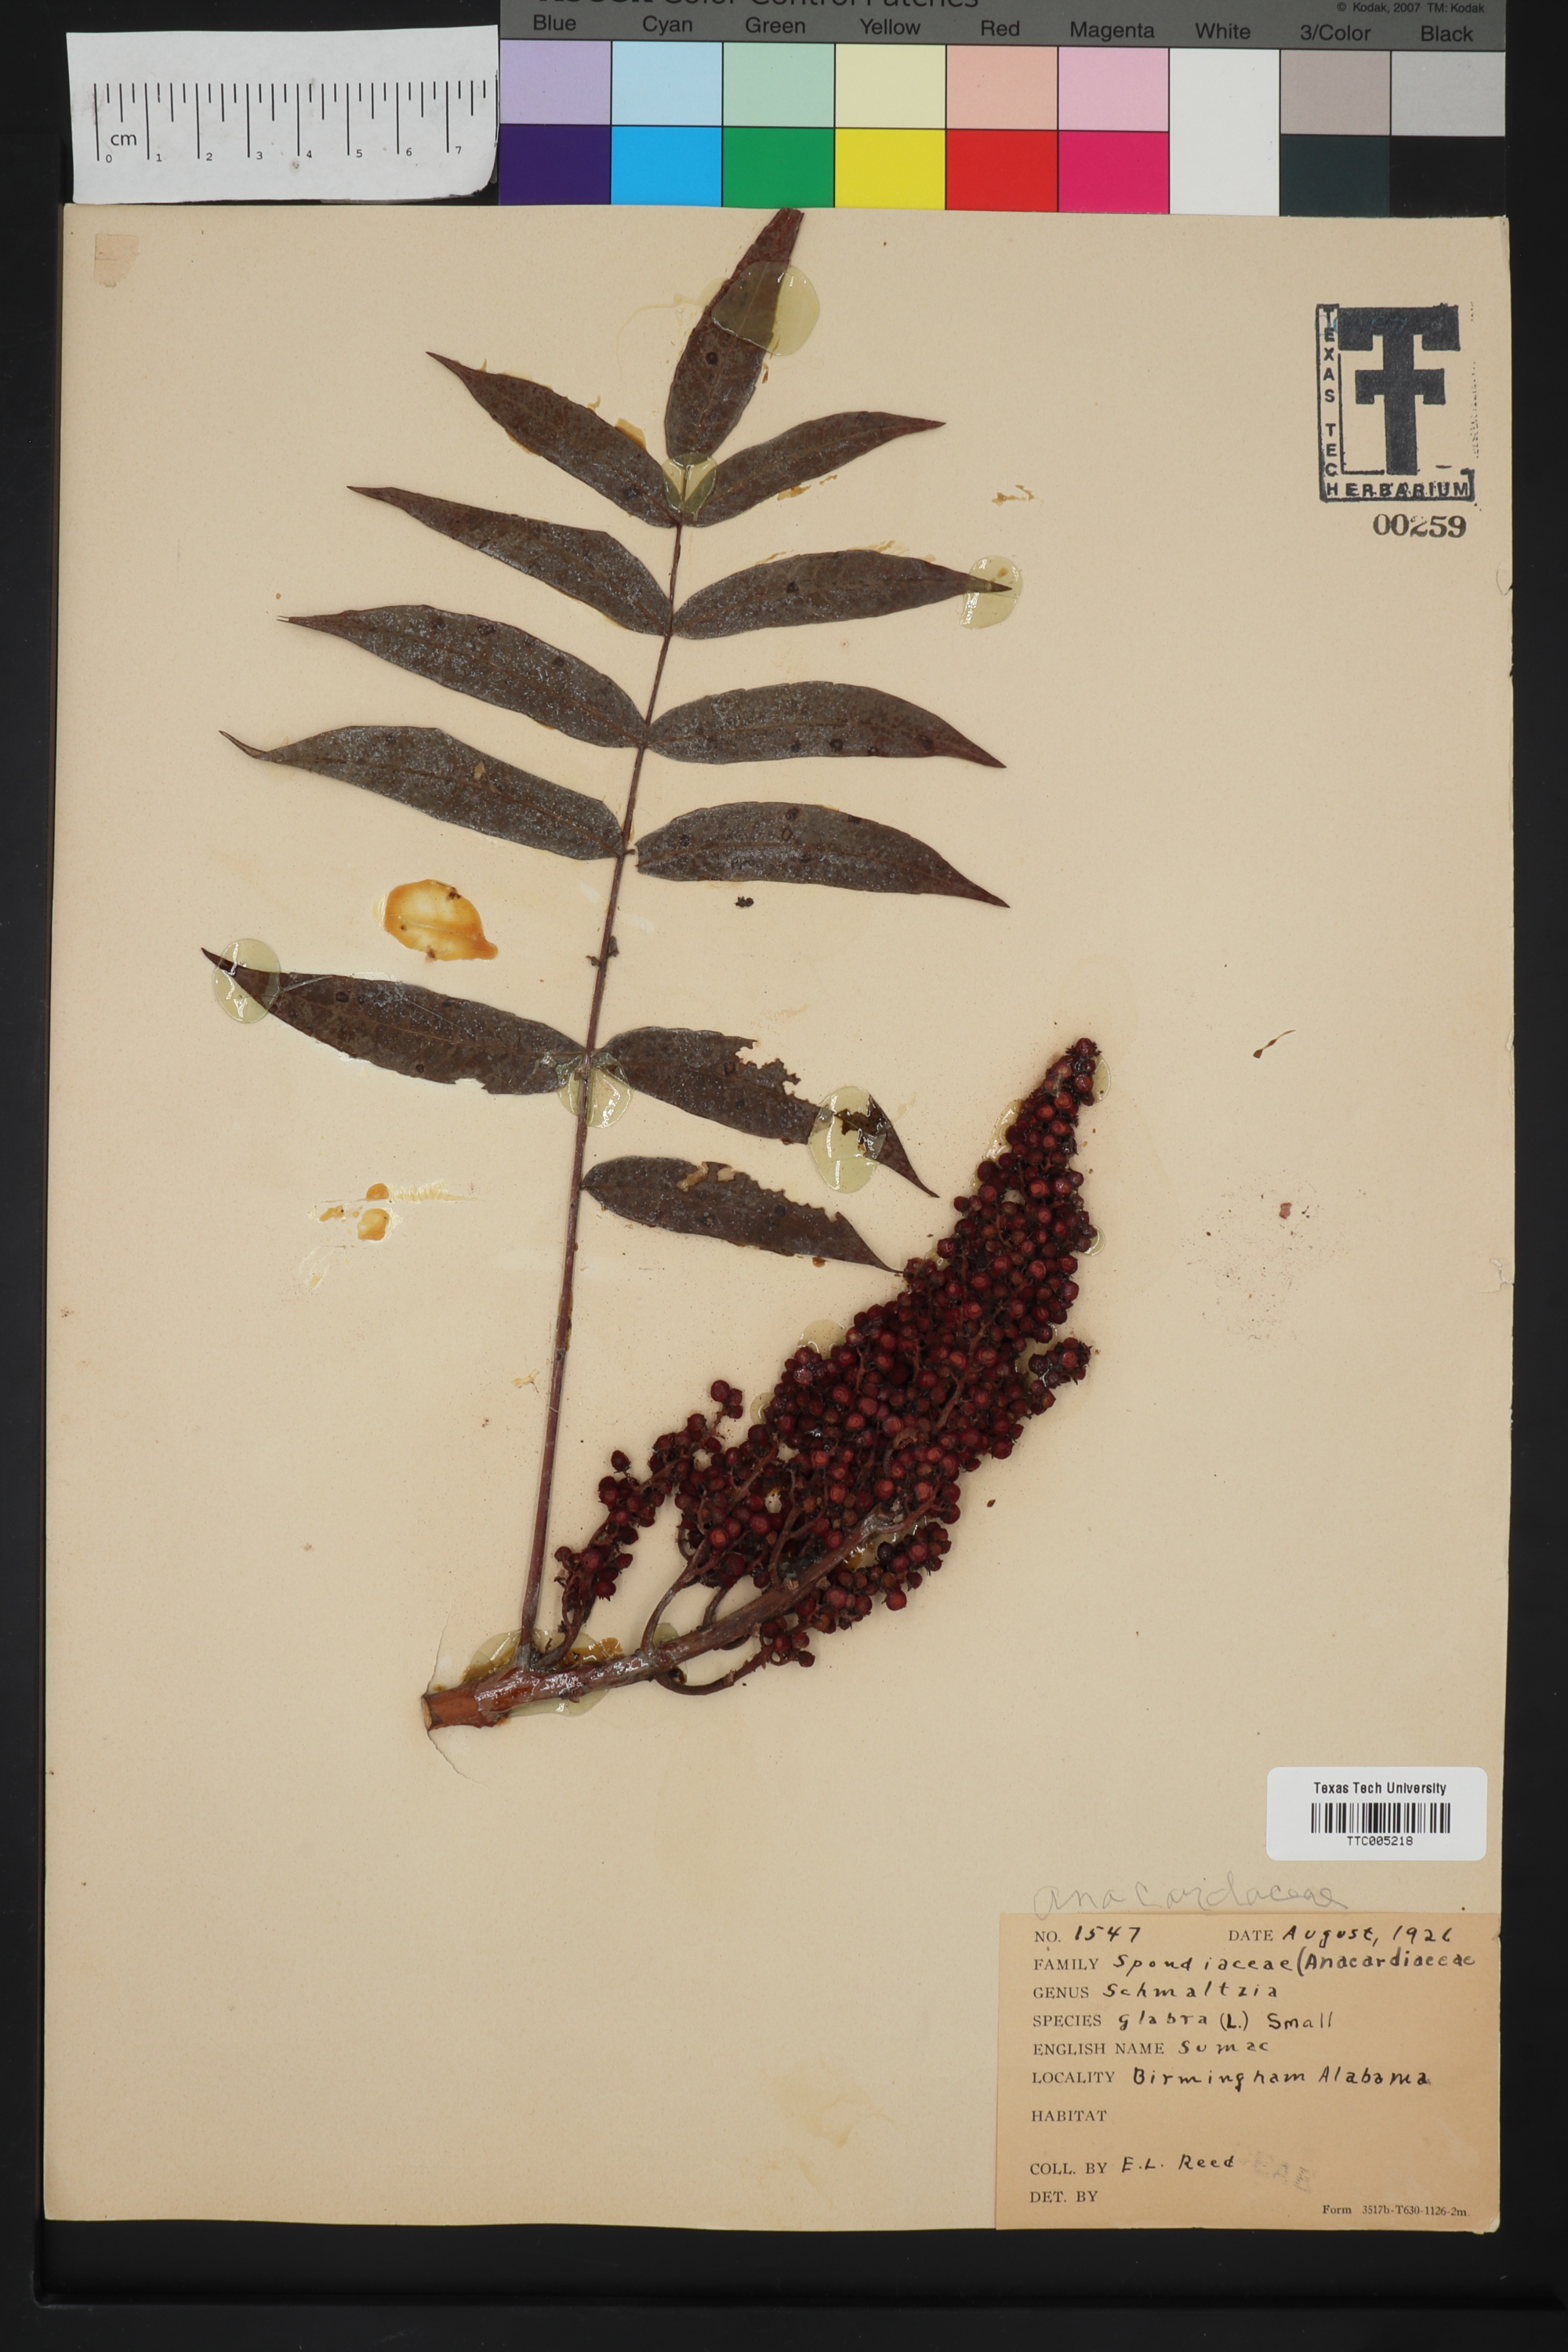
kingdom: Plantae
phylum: Tracheophyta
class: Magnoliopsida
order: Sapindales
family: Anacardiaceae
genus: Rhus
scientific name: Rhus glabra
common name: Scarlet sumac
